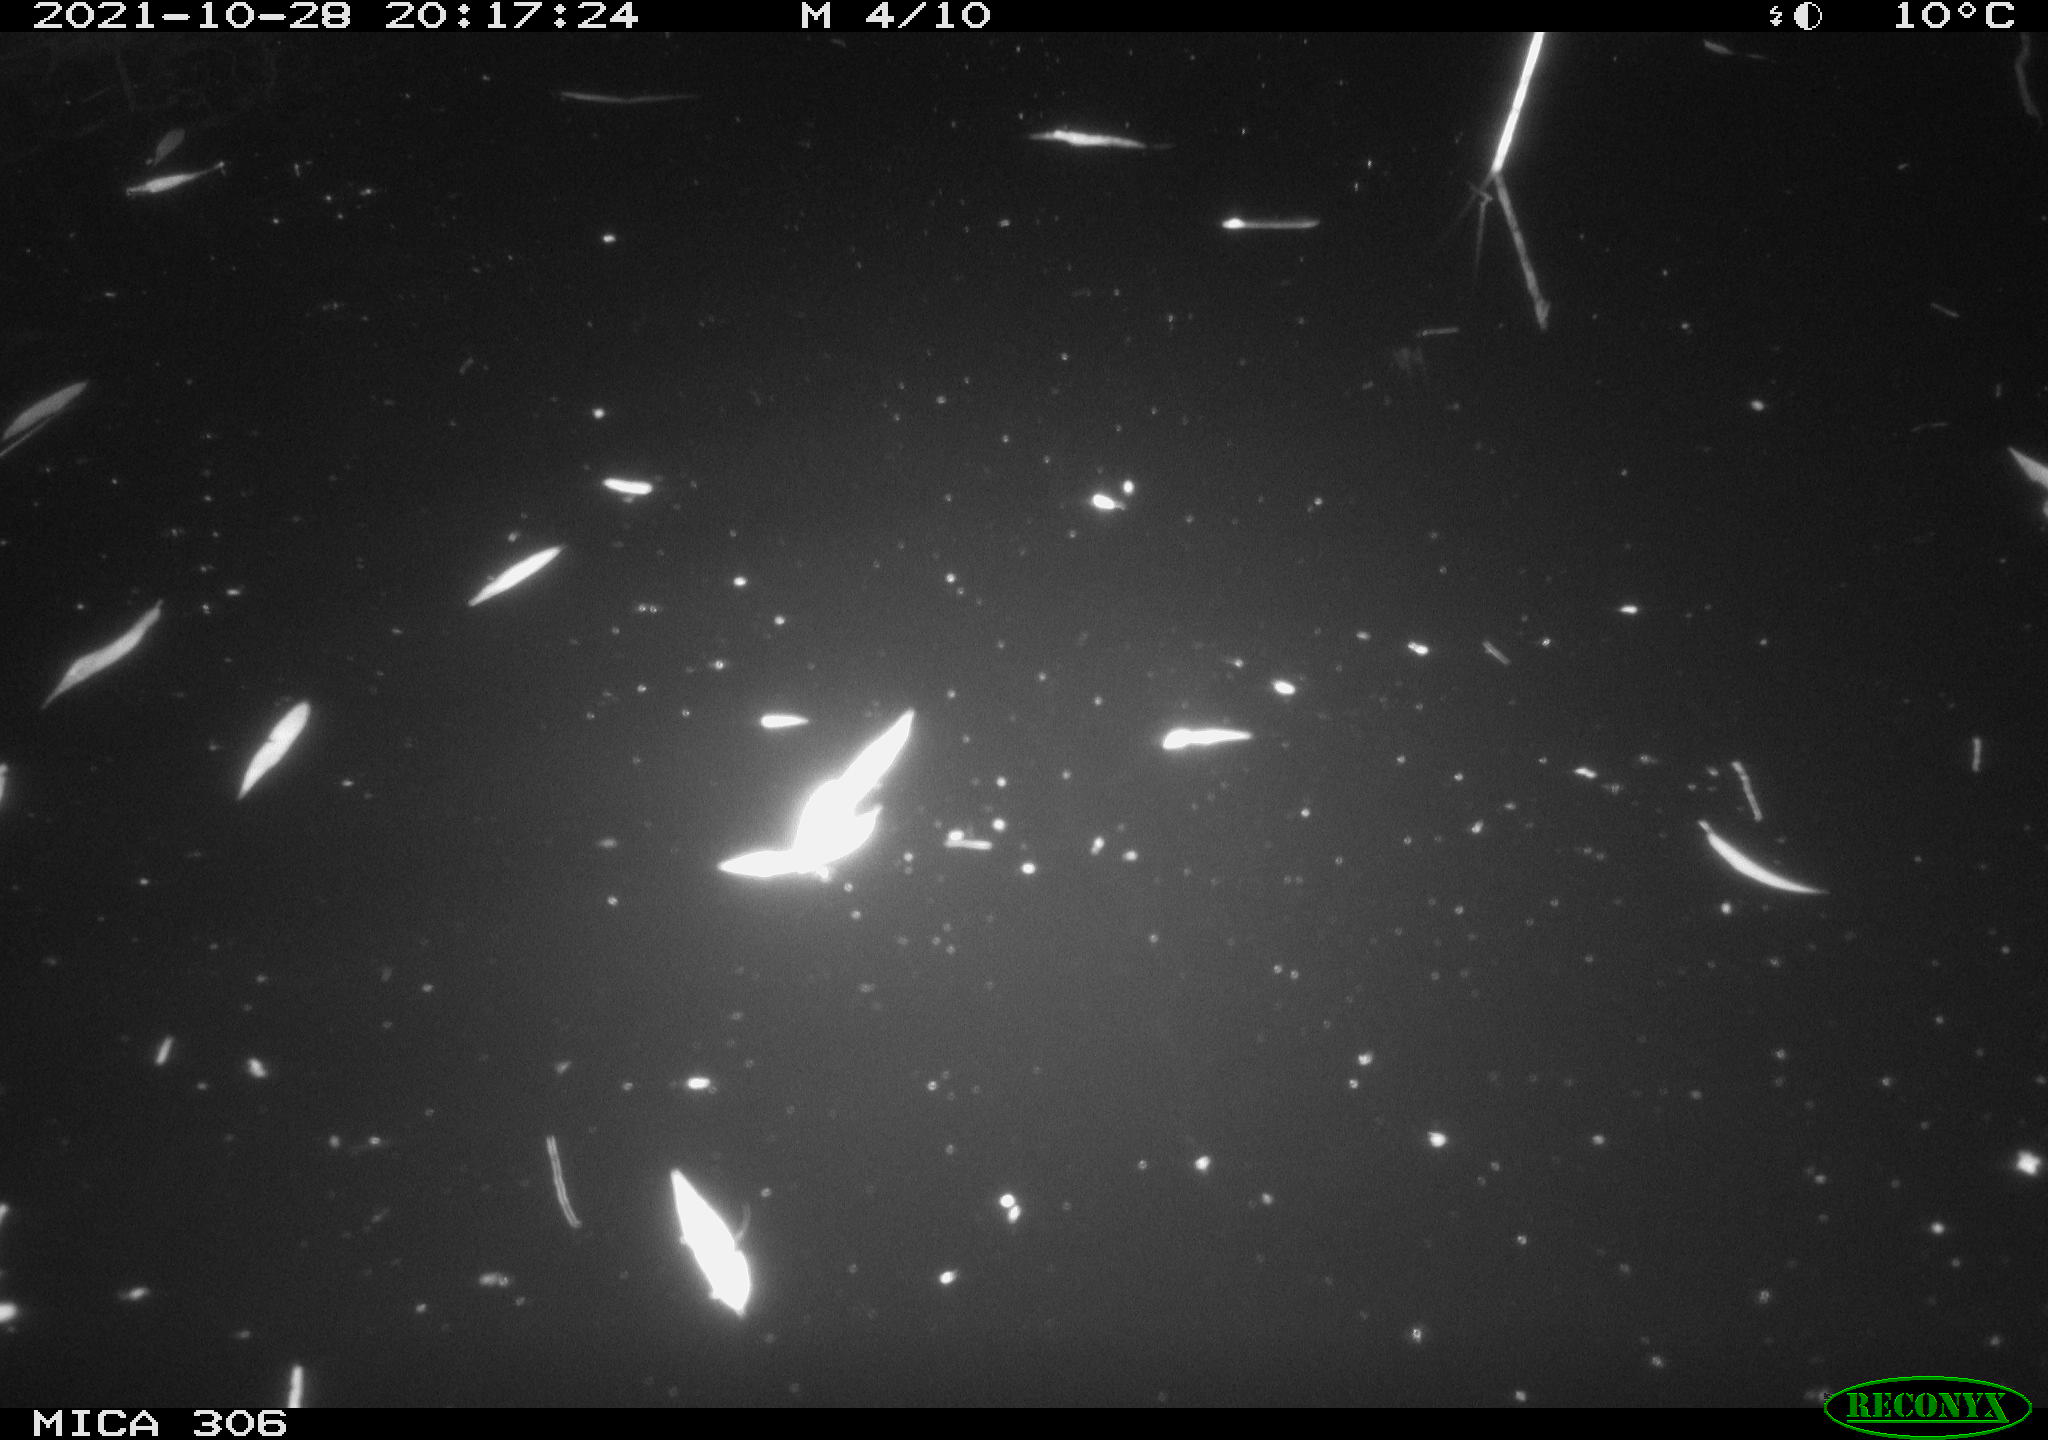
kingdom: Animalia
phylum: Chordata
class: Mammalia
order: Rodentia
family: Muridae
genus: Rattus
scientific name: Rattus norvegicus
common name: Brown rat
